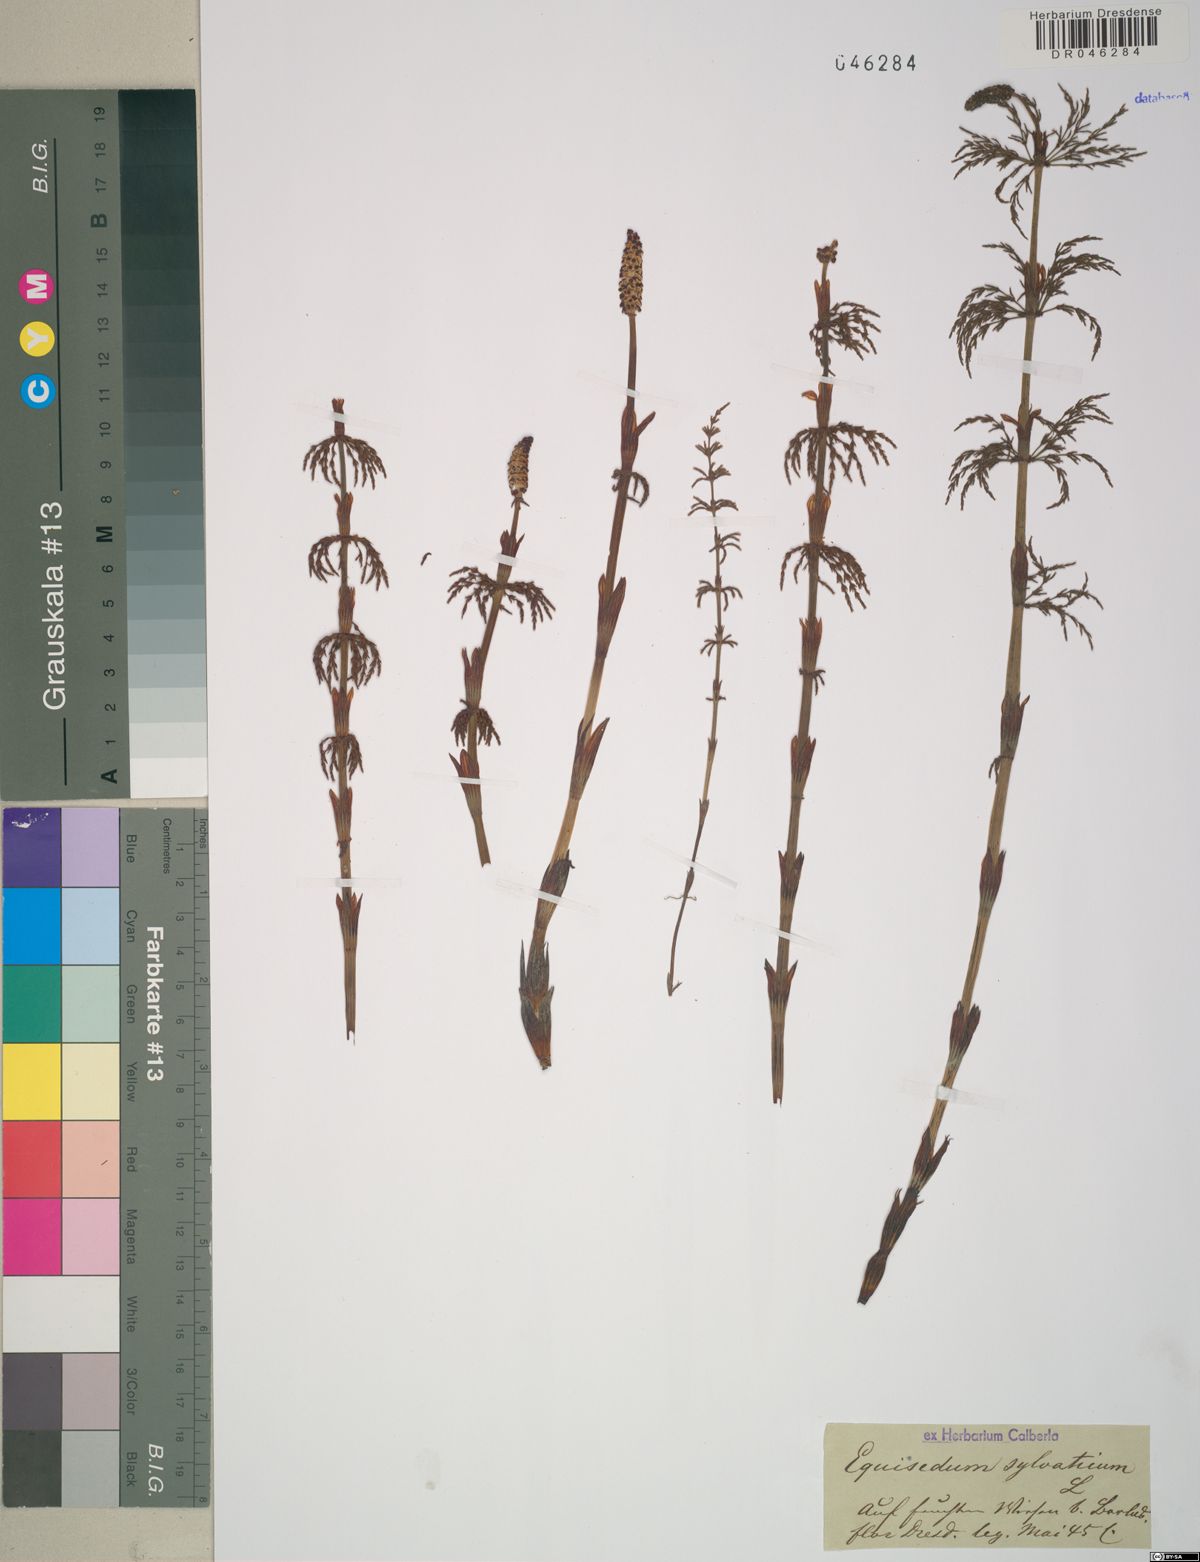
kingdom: Plantae
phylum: Tracheophyta
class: Polypodiopsida
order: Equisetales
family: Equisetaceae
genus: Equisetum
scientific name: Equisetum sylvaticum
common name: Wood horsetail
